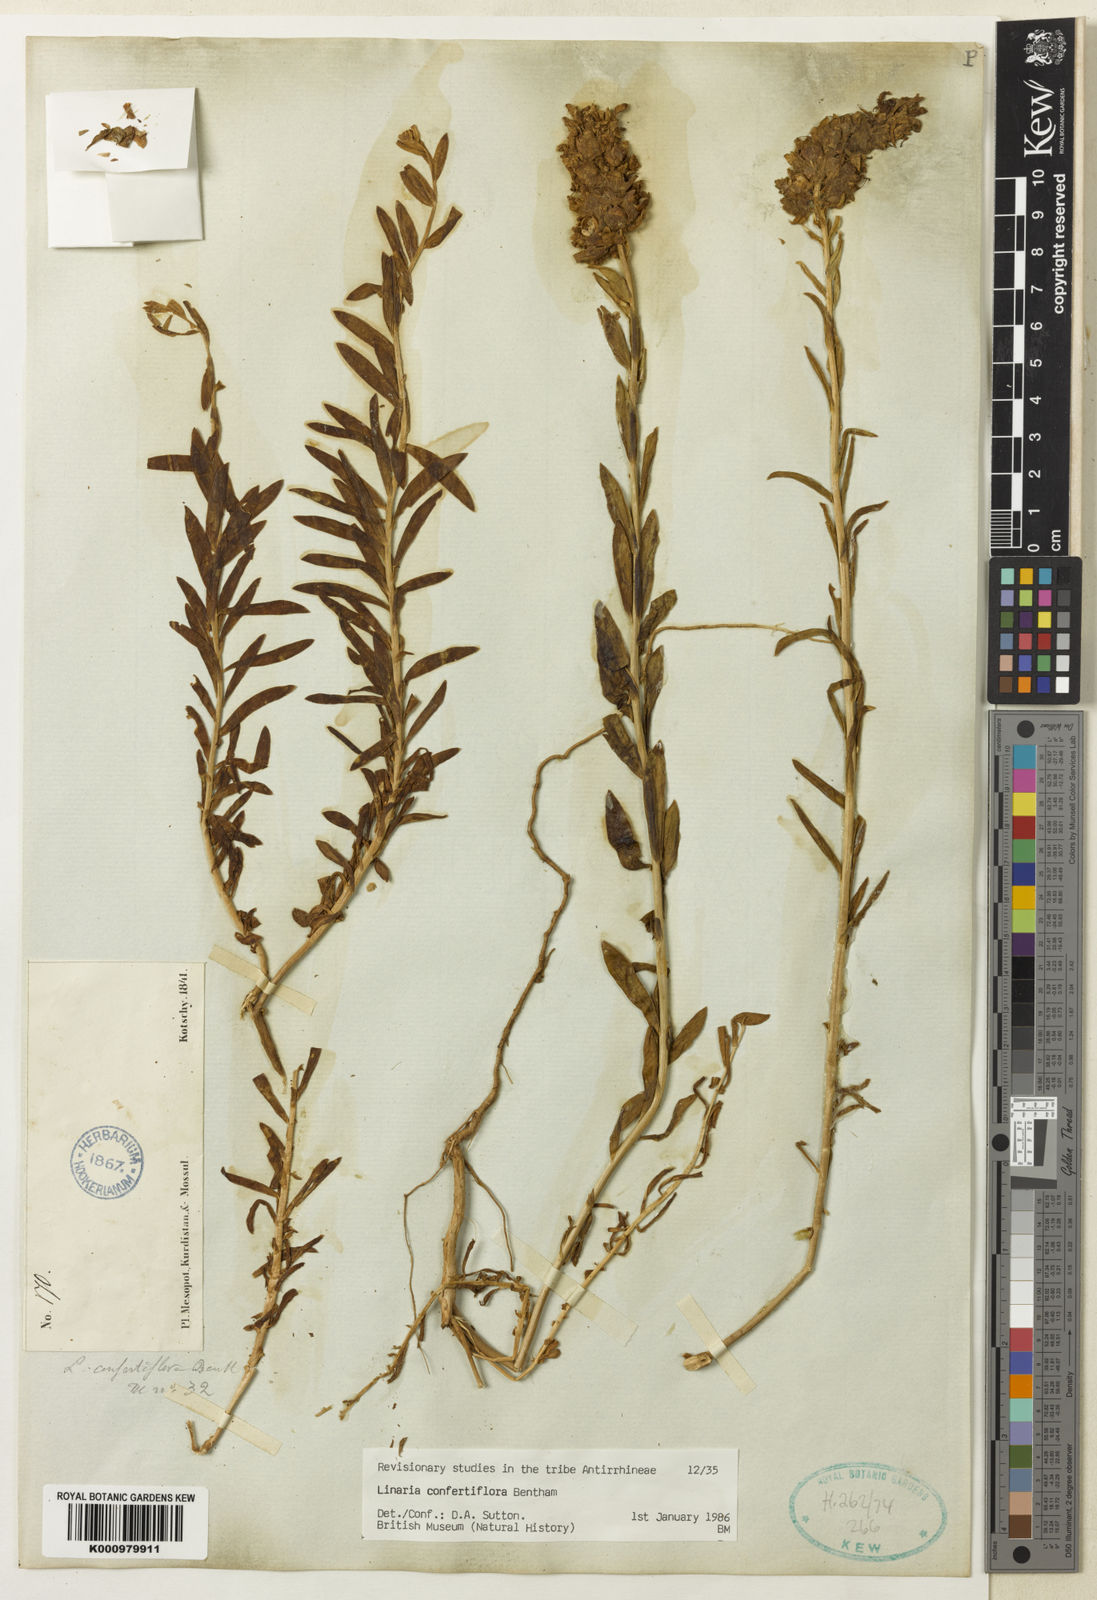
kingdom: Plantae
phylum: Tracheophyta
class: Magnoliopsida
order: Lamiales
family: Plantaginaceae
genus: Linaria
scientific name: Linaria confertiflora
